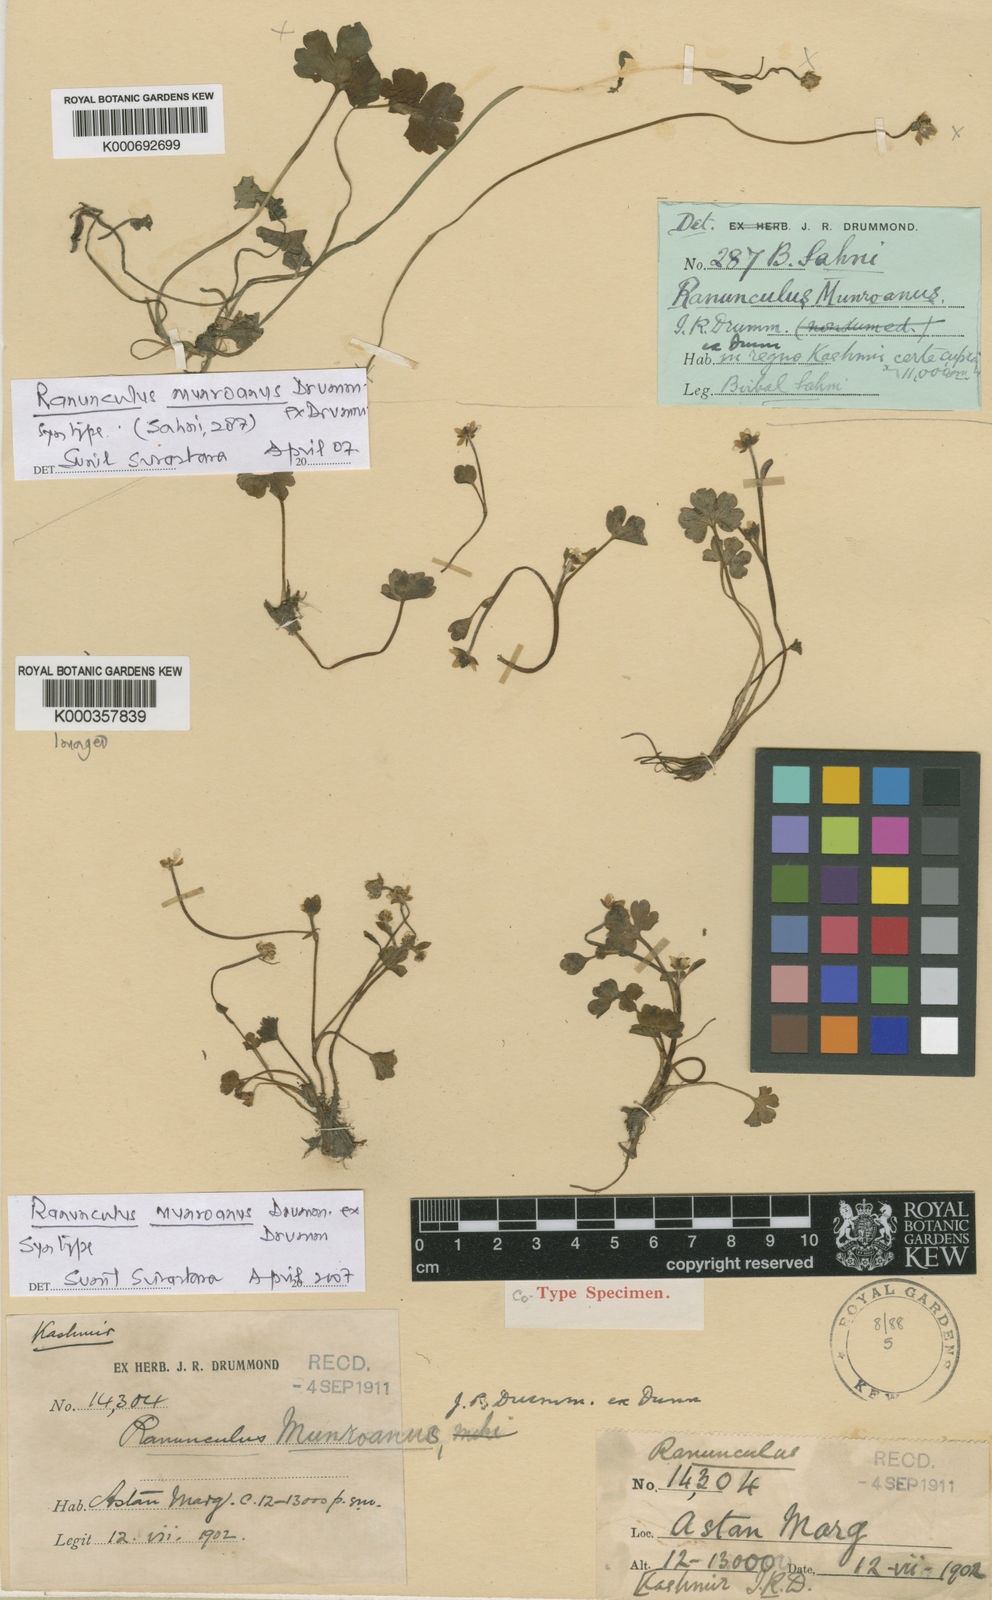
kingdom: Plantae
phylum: Tracheophyta
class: Magnoliopsida
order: Ranunculales
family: Ranunculaceae
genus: Ranunculus
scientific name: Ranunculus munroanus
